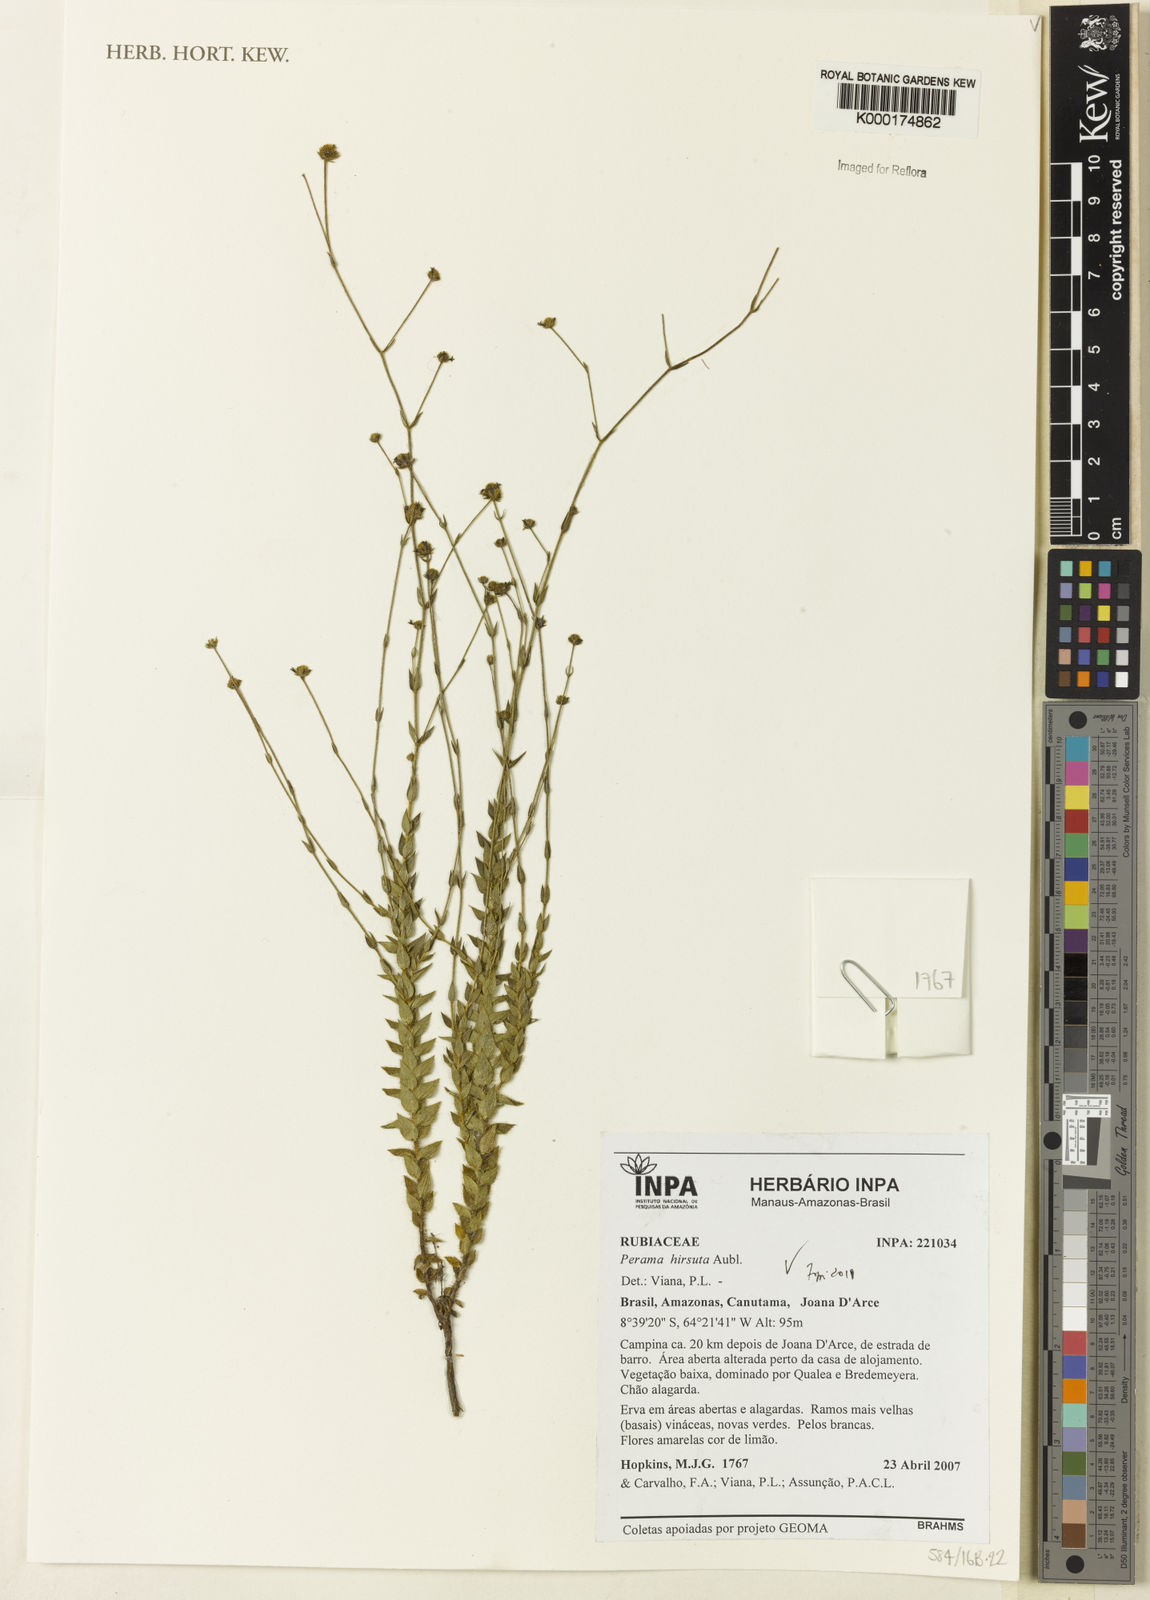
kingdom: Plantae
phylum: Tracheophyta
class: Magnoliopsida
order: Gentianales
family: Rubiaceae
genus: Perama
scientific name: Perama hirsuta
